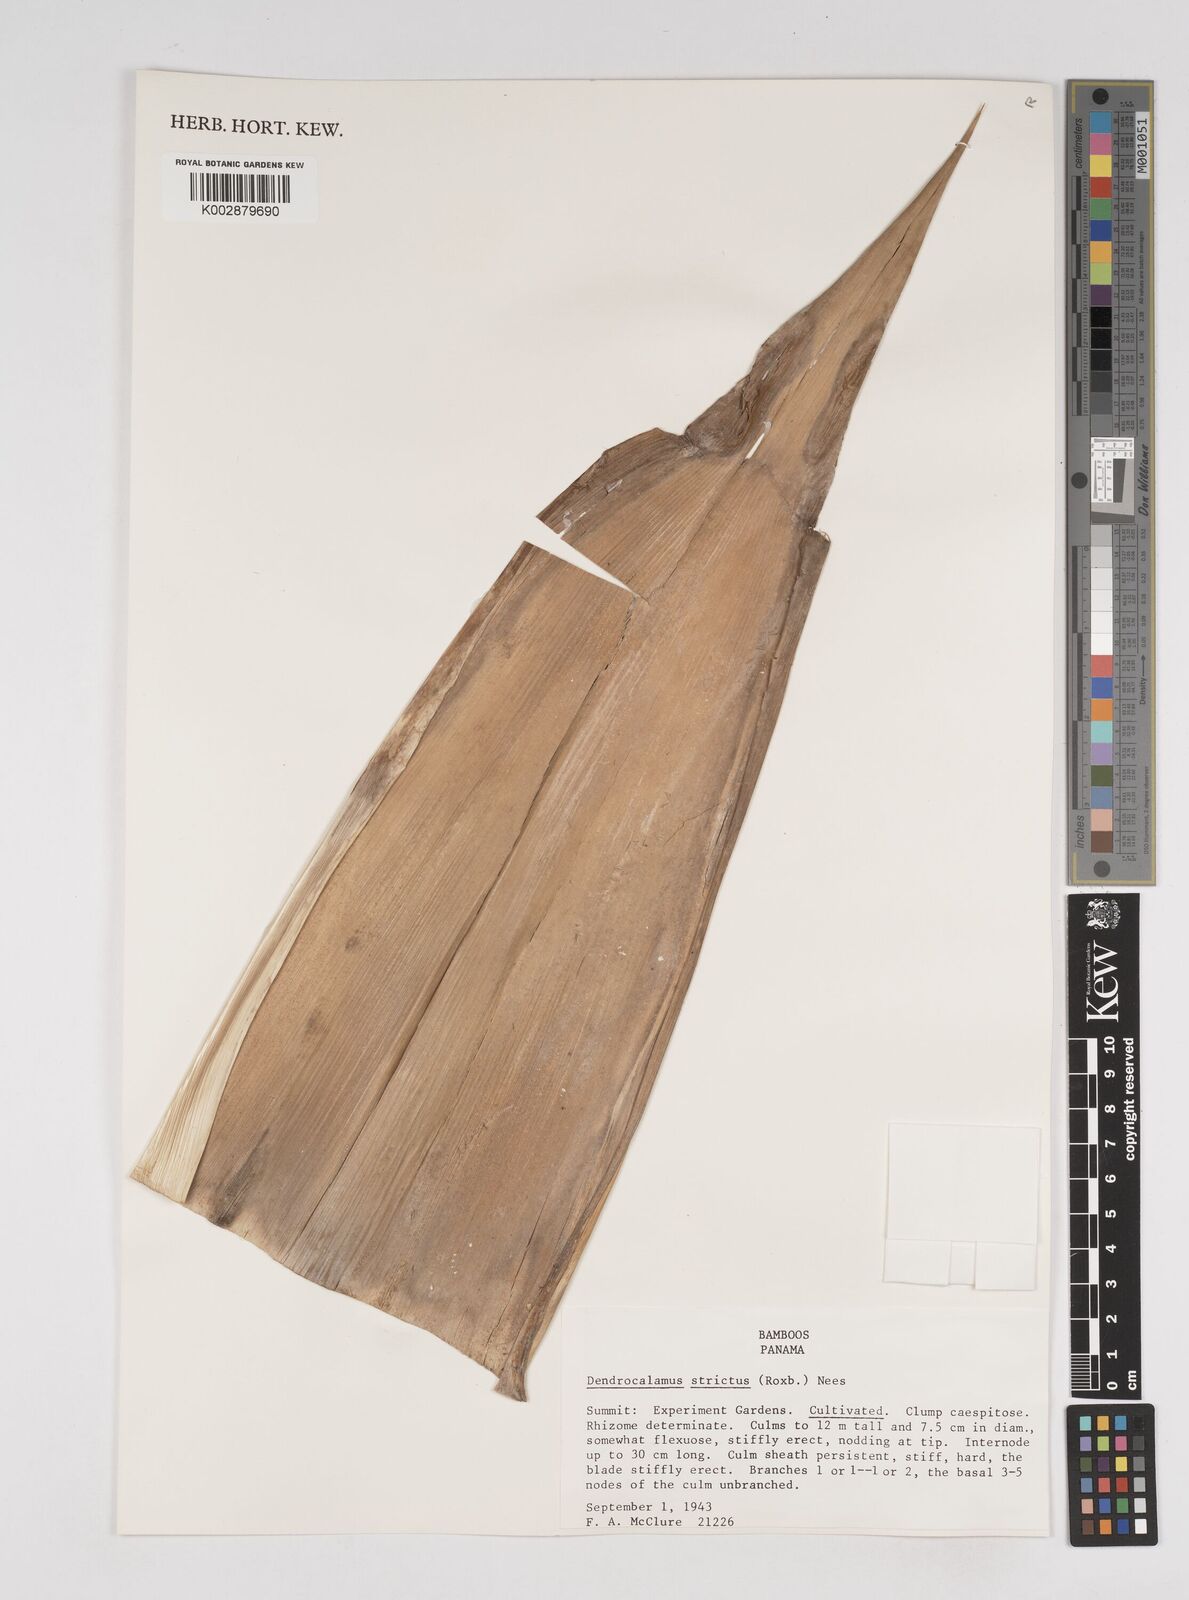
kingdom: Plantae
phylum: Tracheophyta
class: Liliopsida
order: Poales
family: Poaceae
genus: Dendrocalamus
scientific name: Dendrocalamus strictus
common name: Male bamboo
